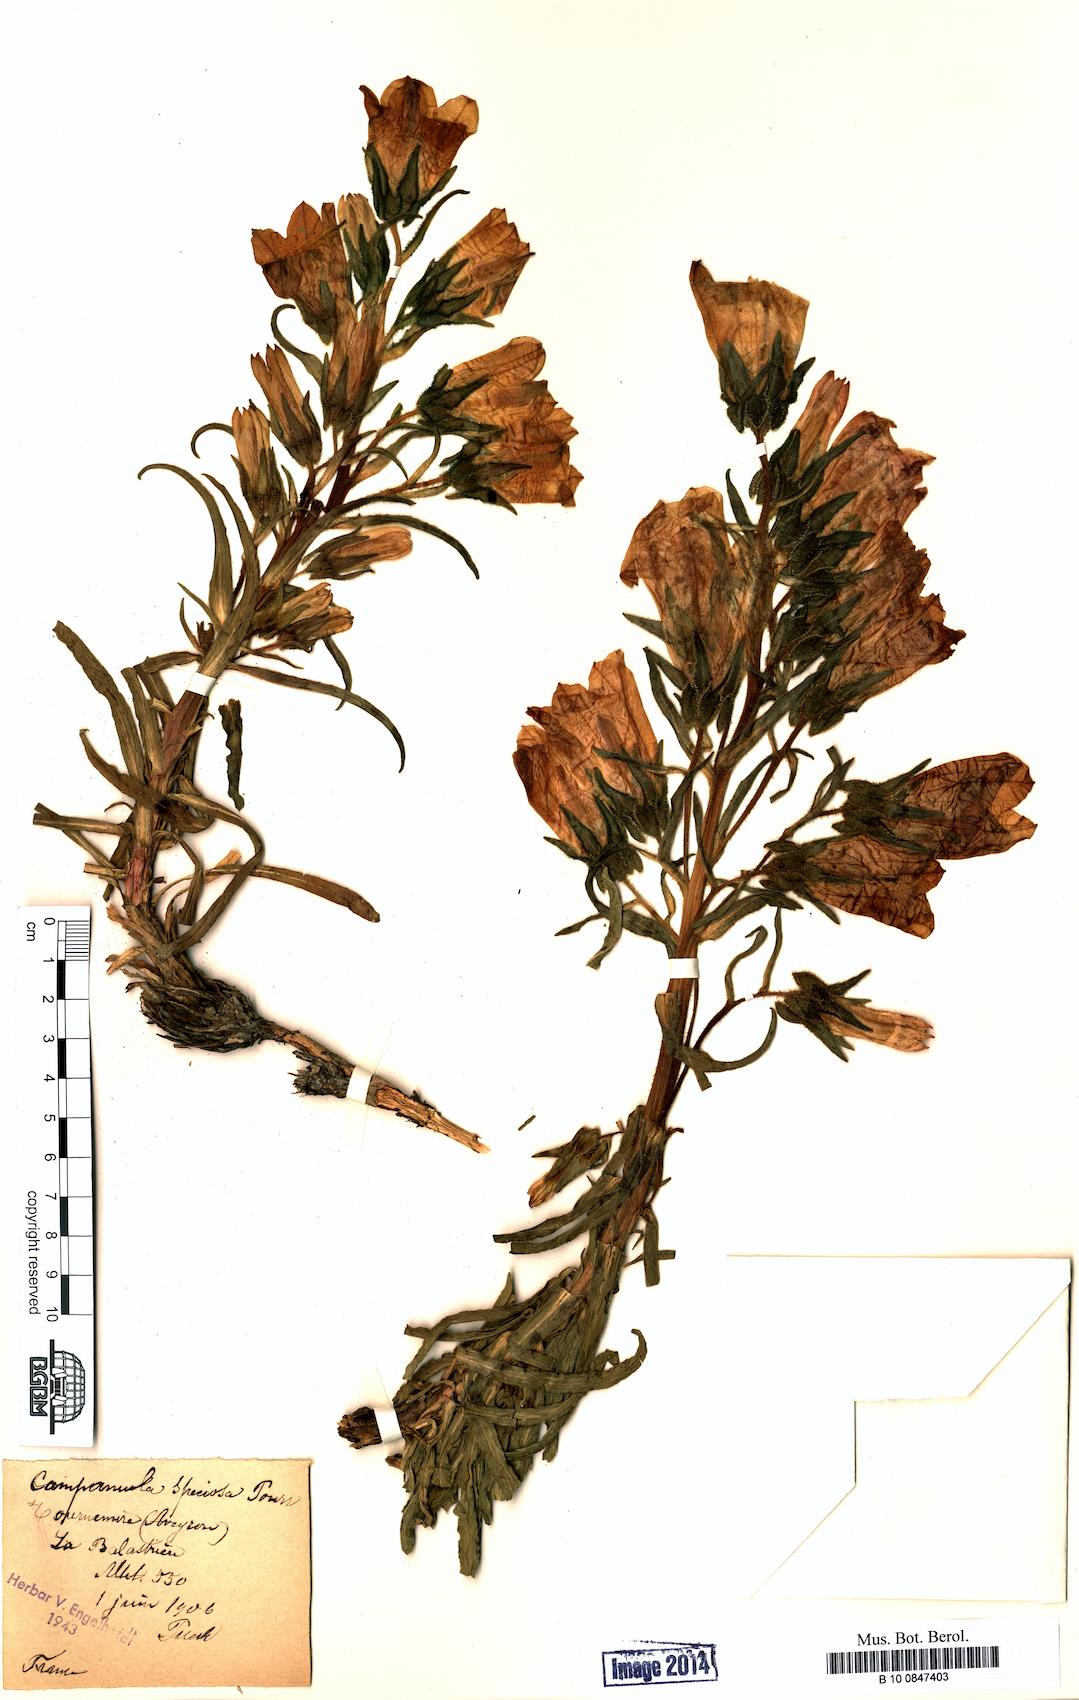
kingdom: Plantae
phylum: Tracheophyta
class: Magnoliopsida
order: Asterales
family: Campanulaceae
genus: Campanula
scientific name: Campanula speciosa
